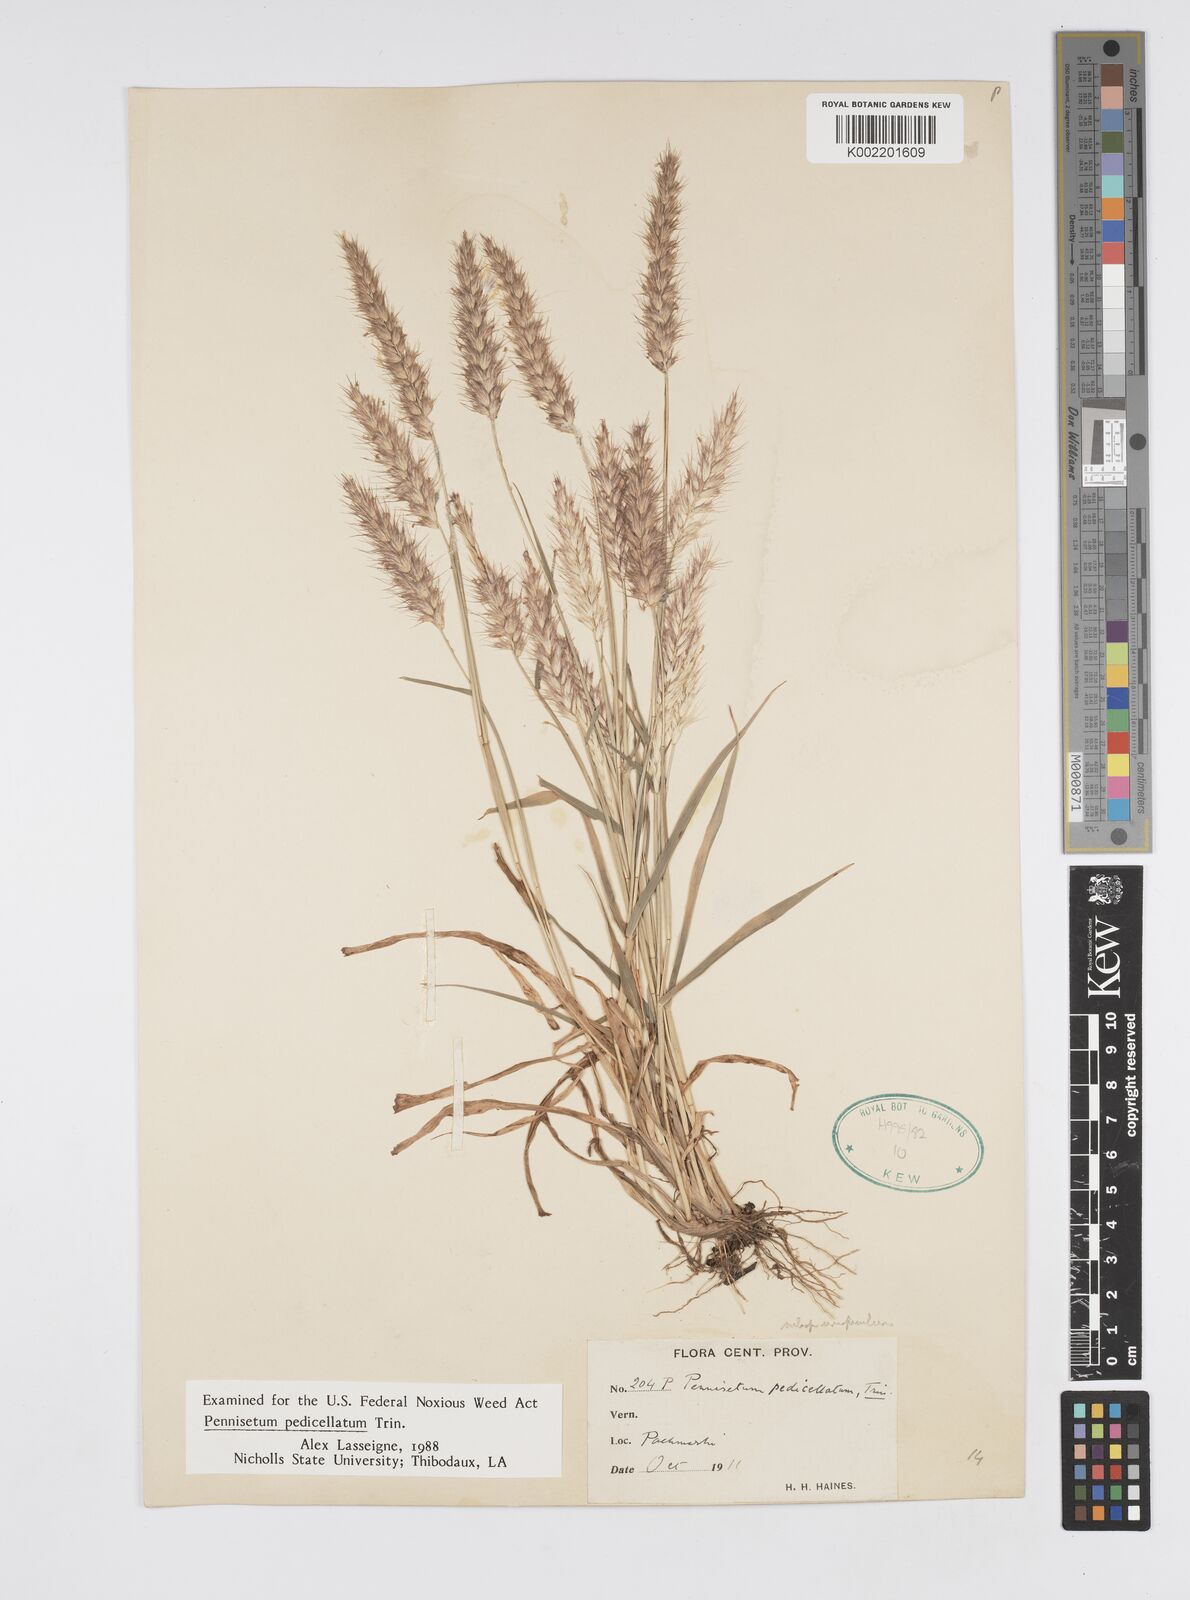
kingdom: Plantae
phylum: Tracheophyta
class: Liliopsida
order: Poales
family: Poaceae
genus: Cenchrus
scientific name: Cenchrus pedicellatus
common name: Hairy fountain grass
